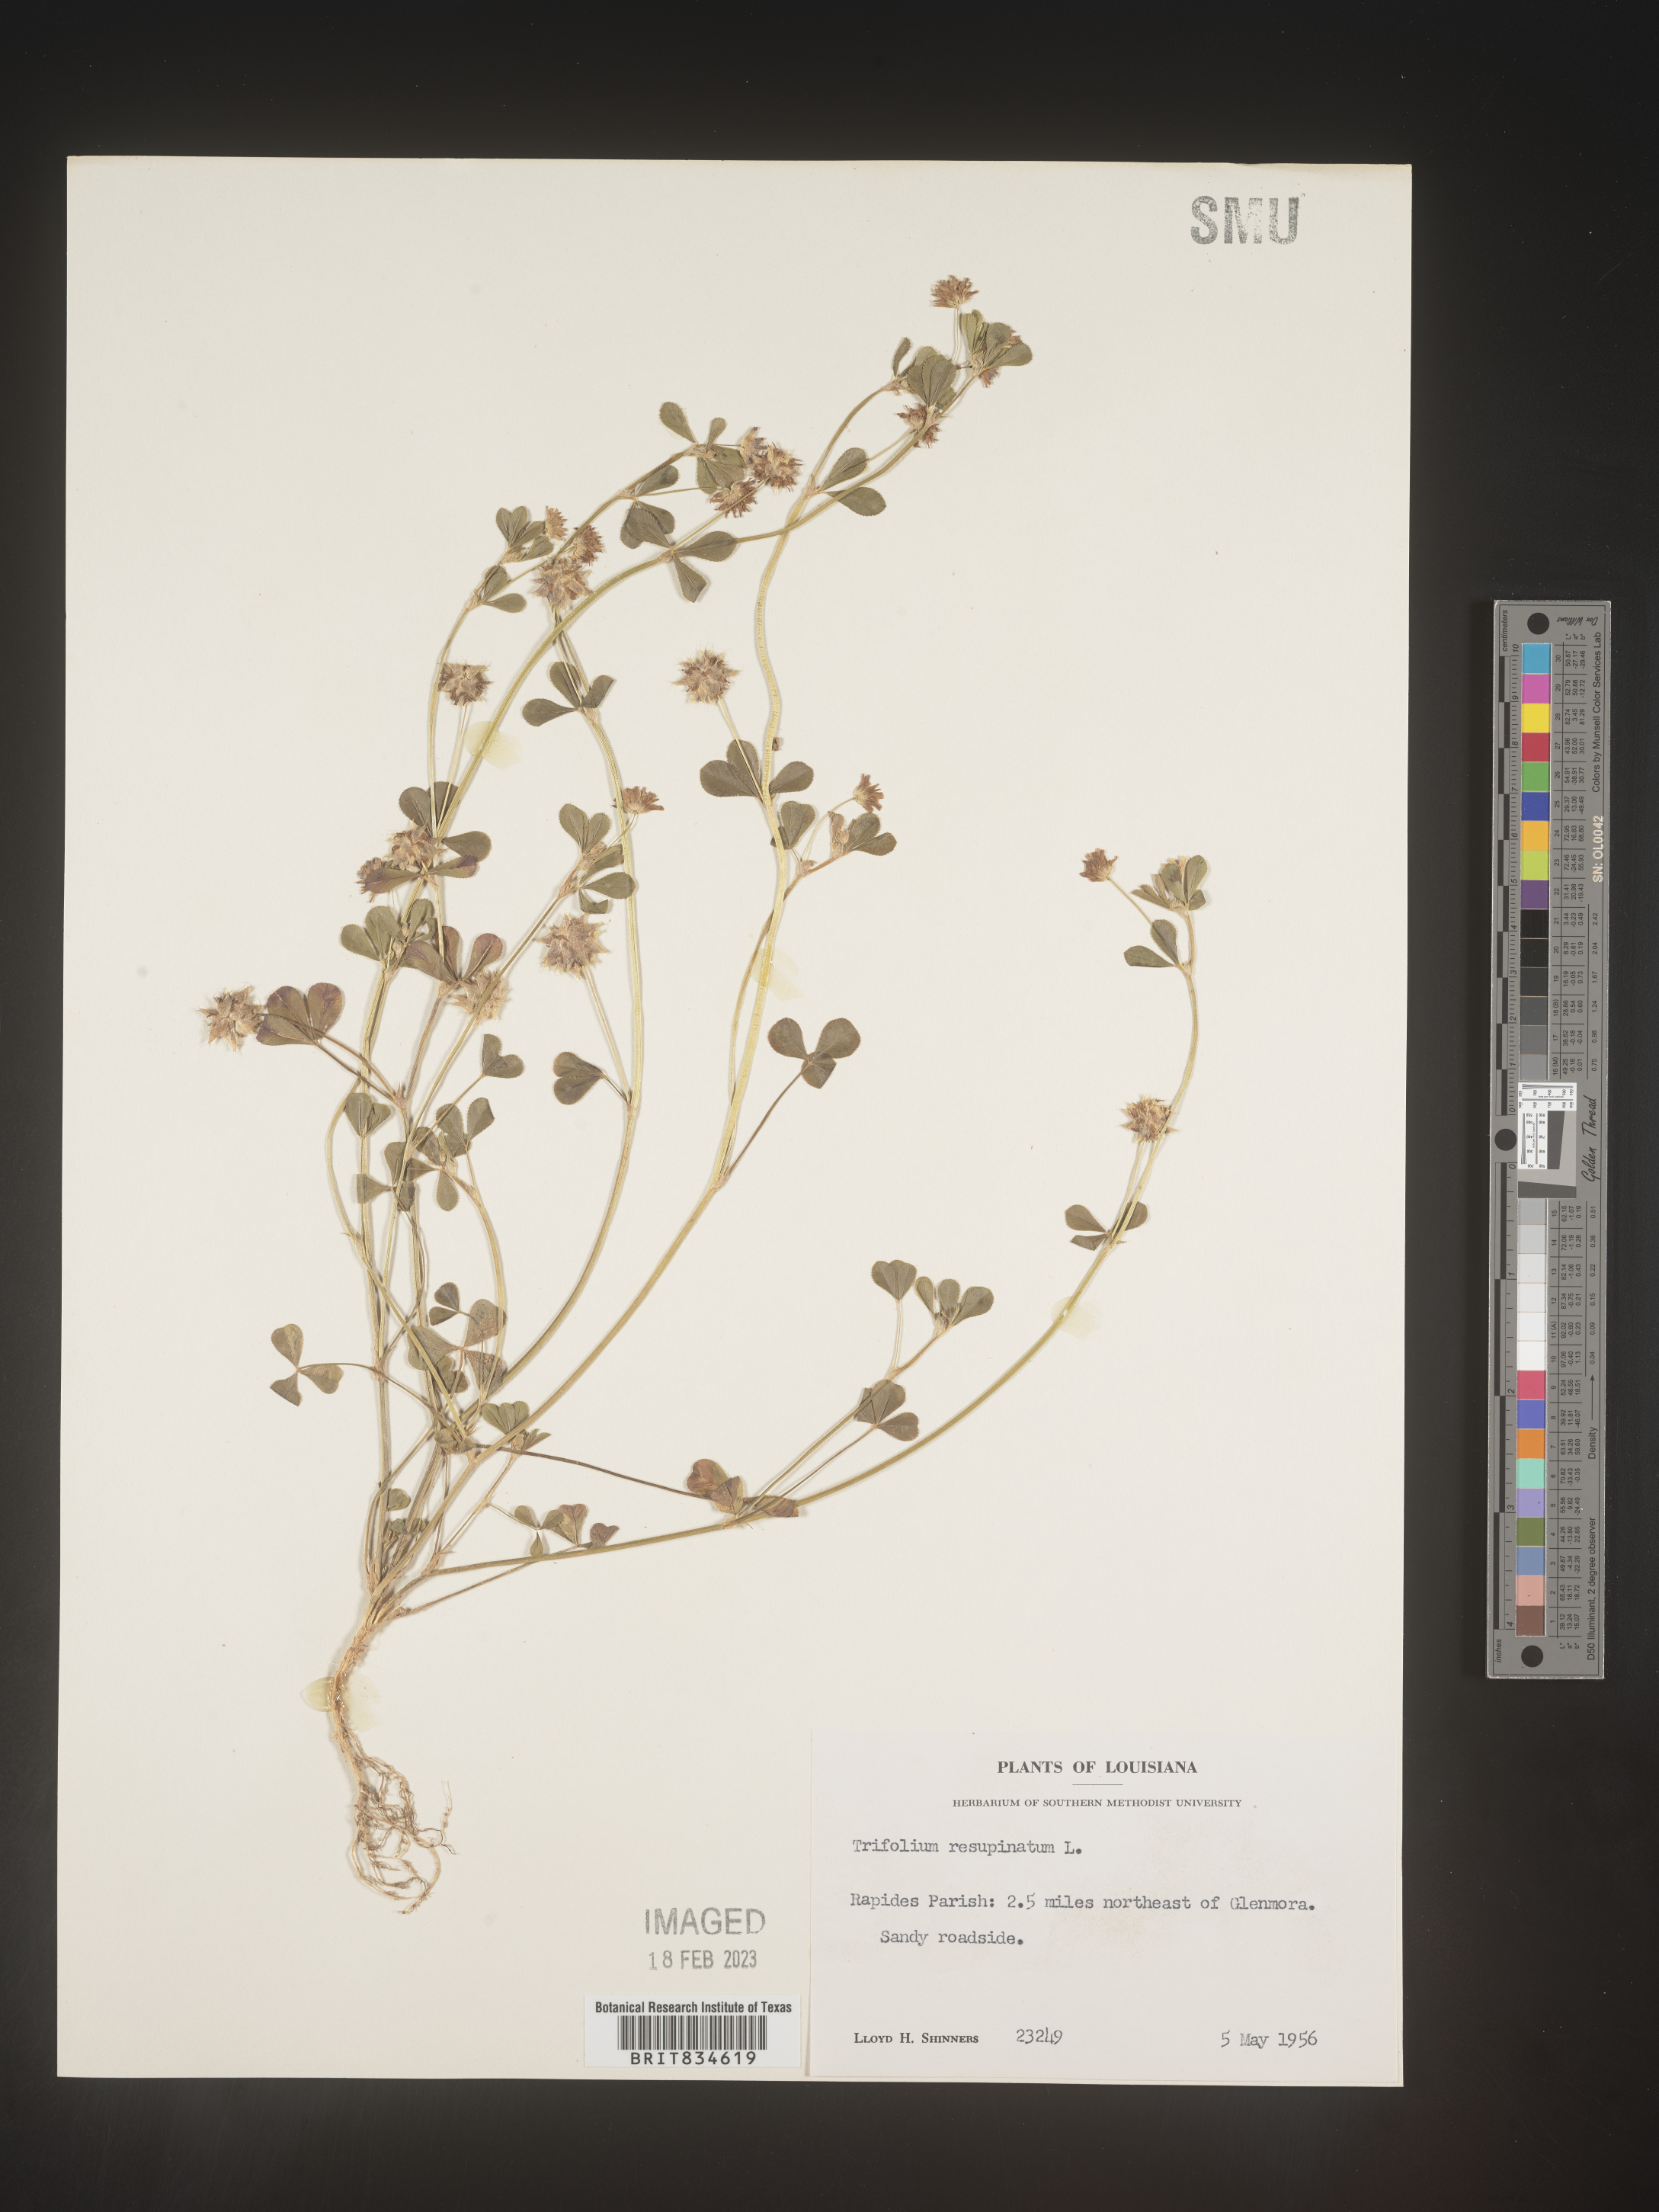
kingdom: Plantae
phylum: Tracheophyta
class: Magnoliopsida
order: Fabales
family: Fabaceae
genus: Trifolium
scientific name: Trifolium resupinatum
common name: Reversed clover
